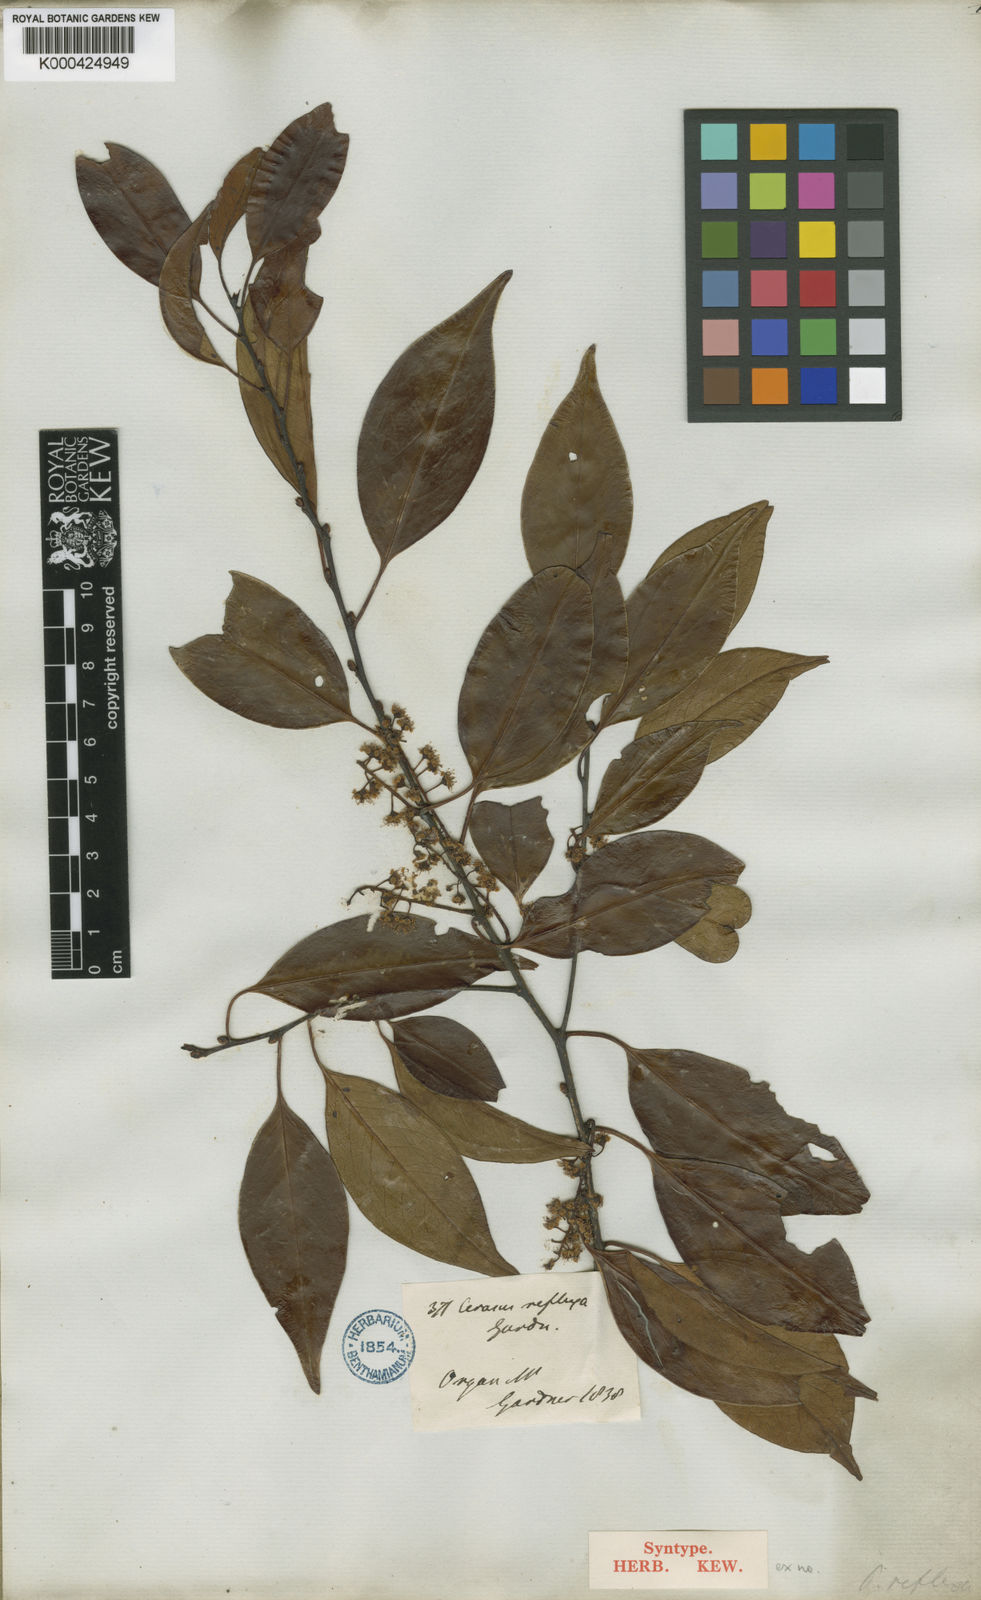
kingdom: Plantae
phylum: Tracheophyta
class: Magnoliopsida
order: Rosales
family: Rosaceae
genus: Prunus
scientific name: Prunus reflexa
